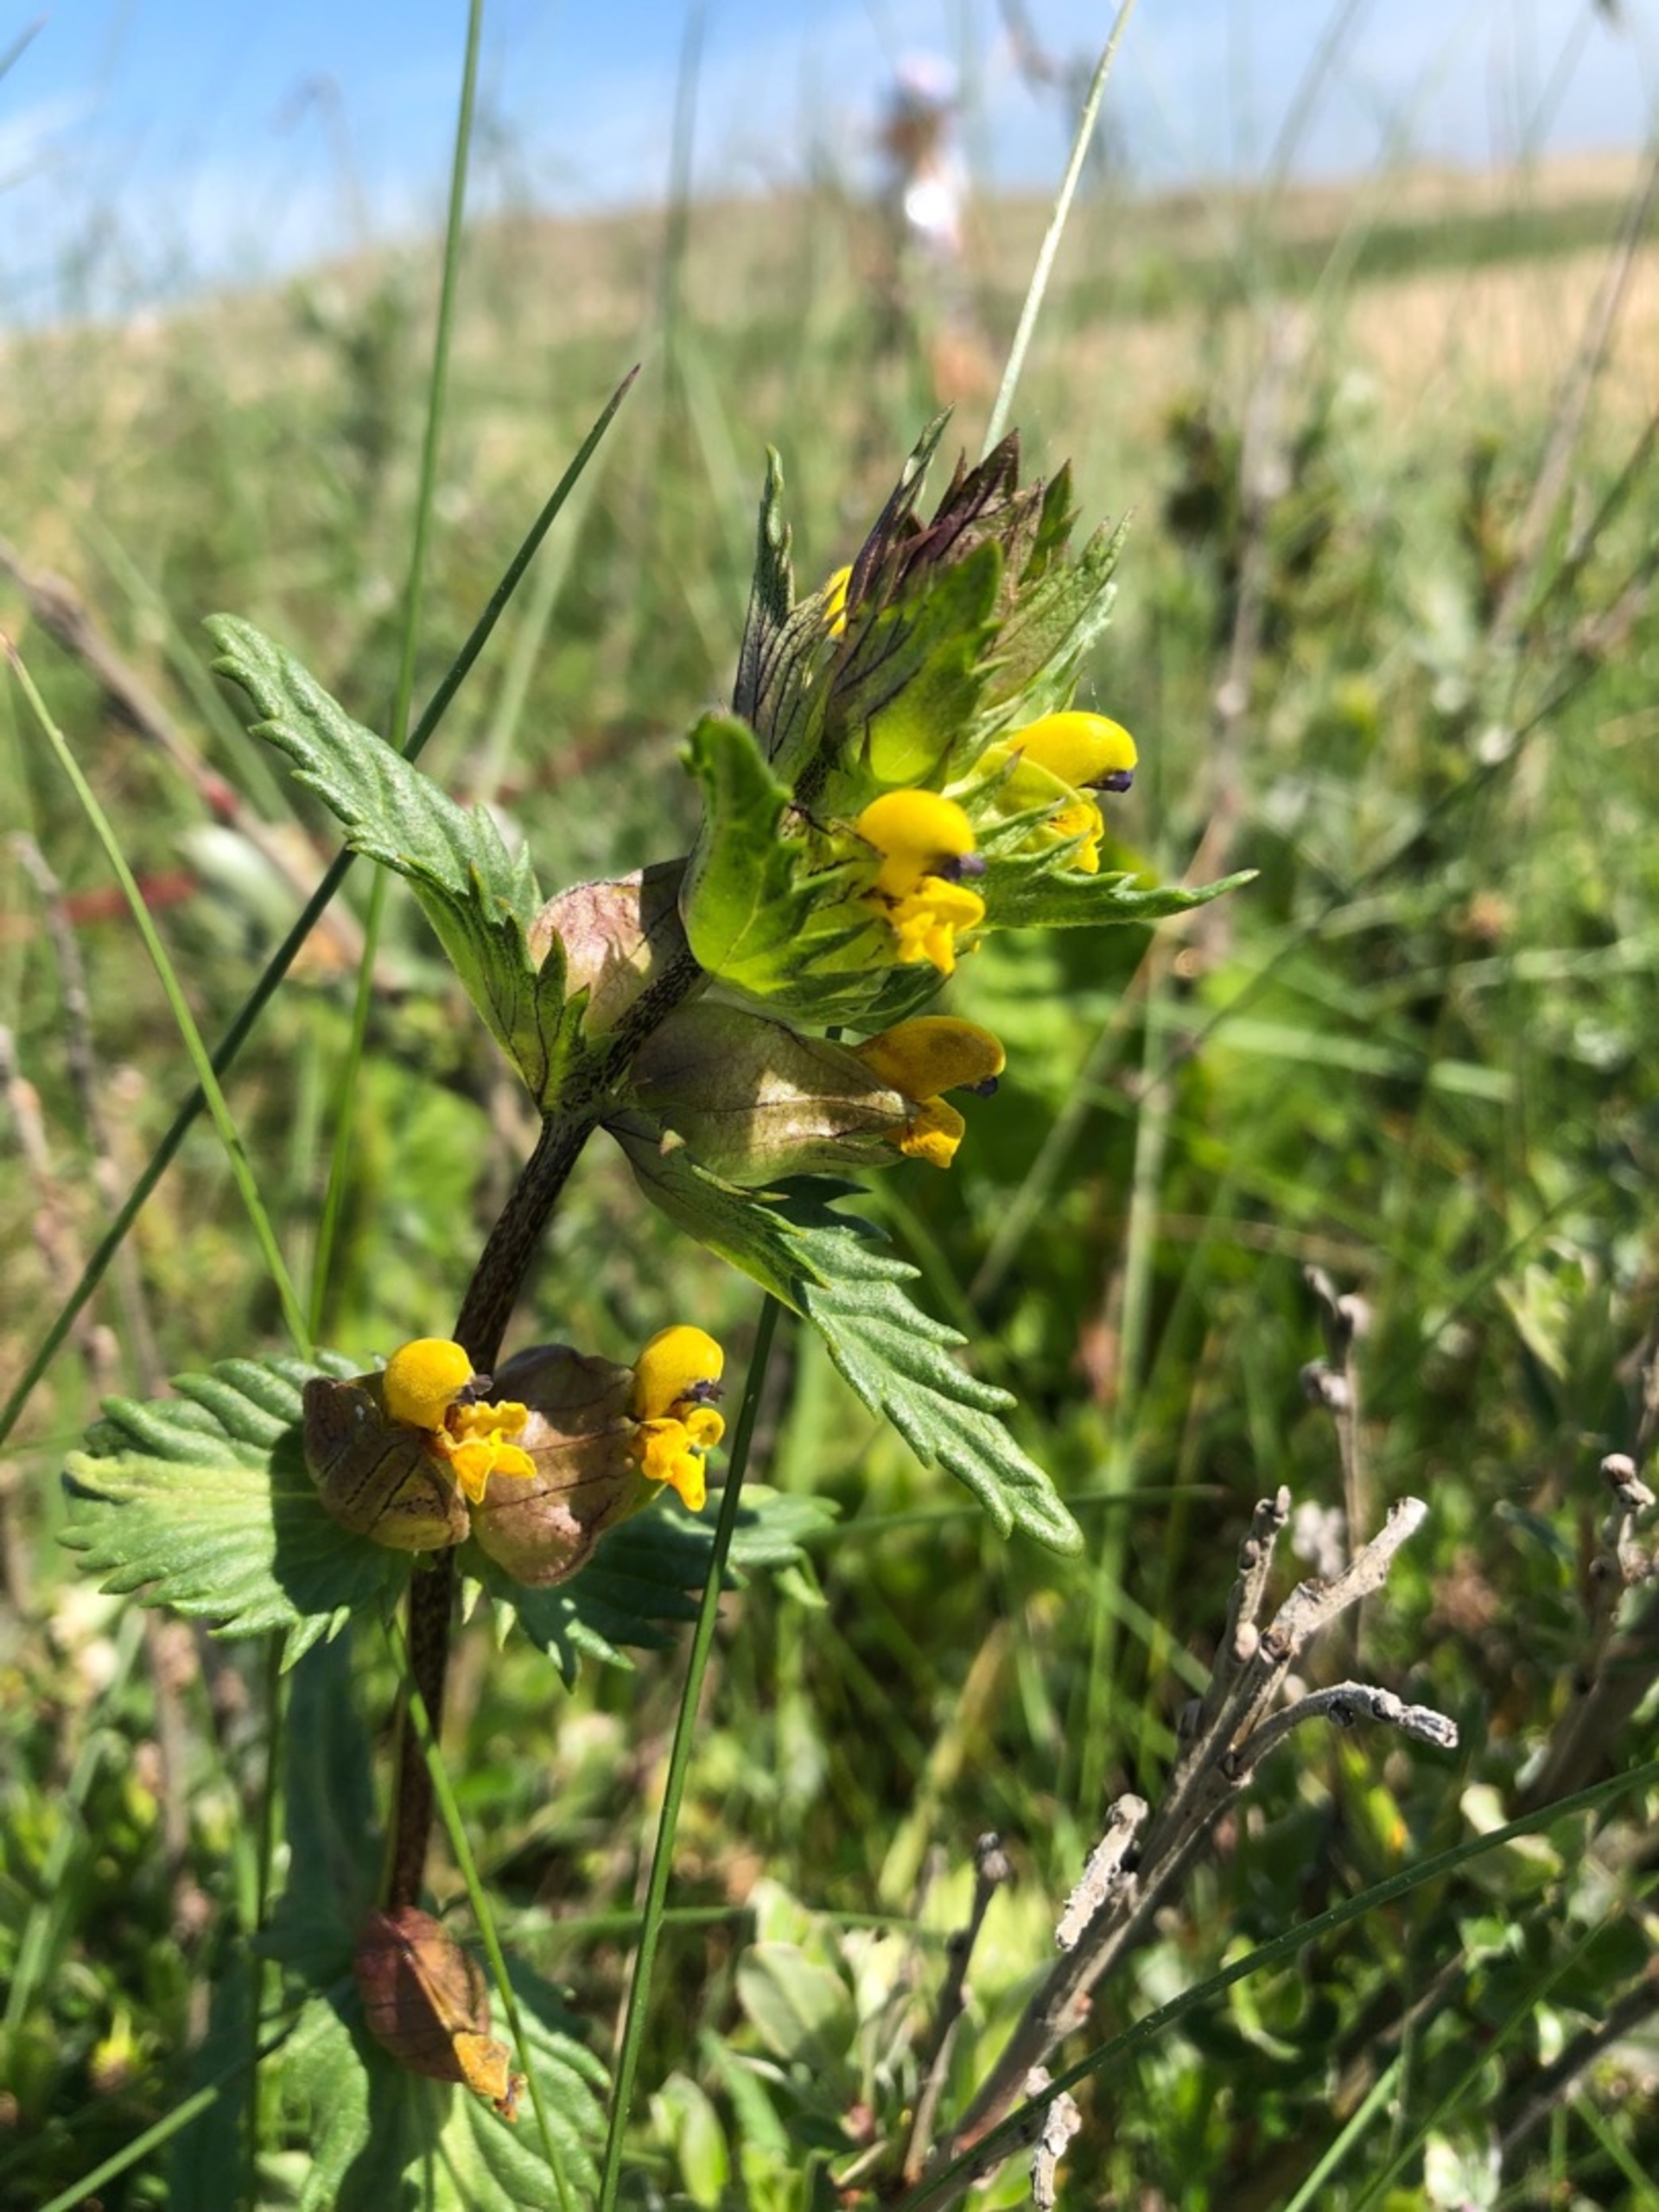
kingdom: Plantae
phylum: Tracheophyta
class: Magnoliopsida
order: Lamiales
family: Orobanchaceae
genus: Rhinanthus
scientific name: Rhinanthus
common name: Stor skjaller
